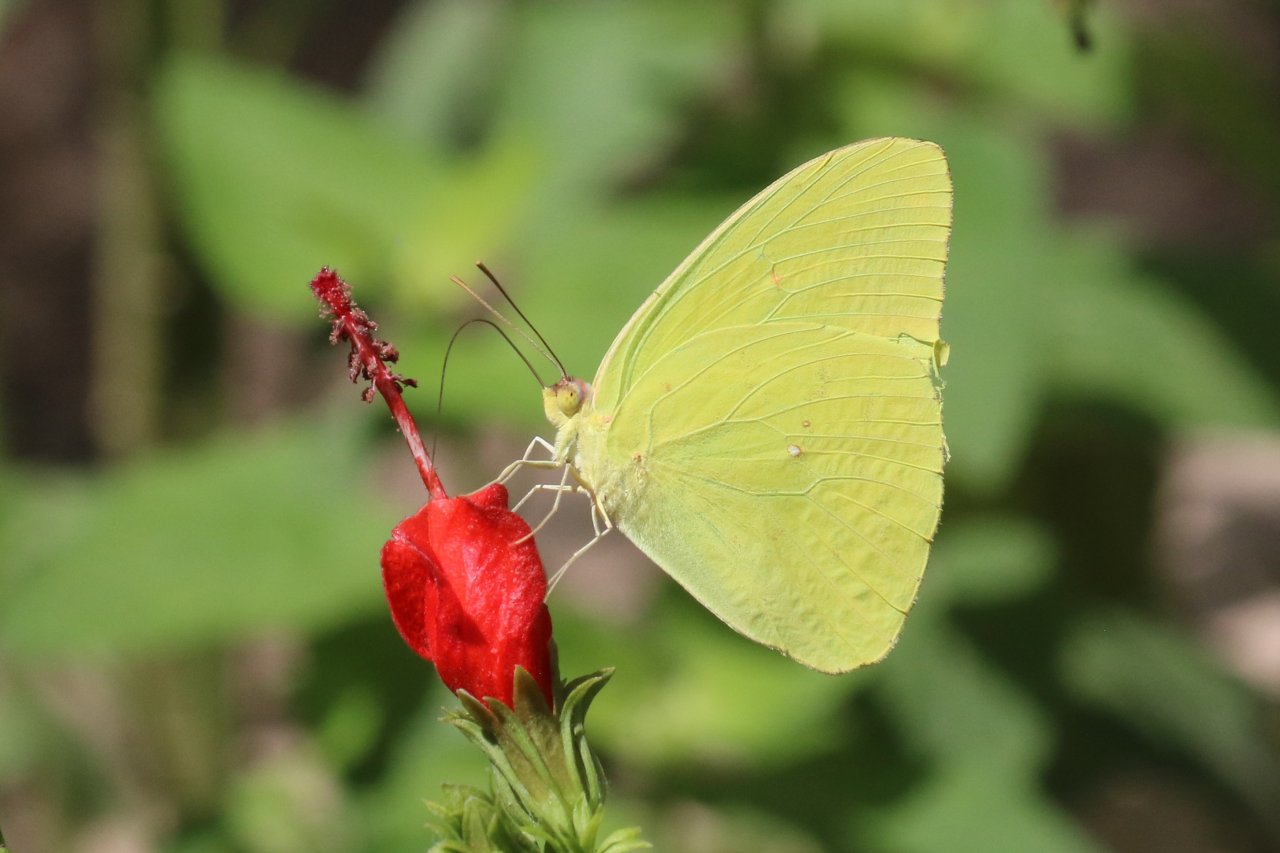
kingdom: Animalia
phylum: Arthropoda
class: Insecta
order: Lepidoptera
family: Pieridae
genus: Phoebis
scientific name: Phoebis sennae
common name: Cloudless Sulphur
